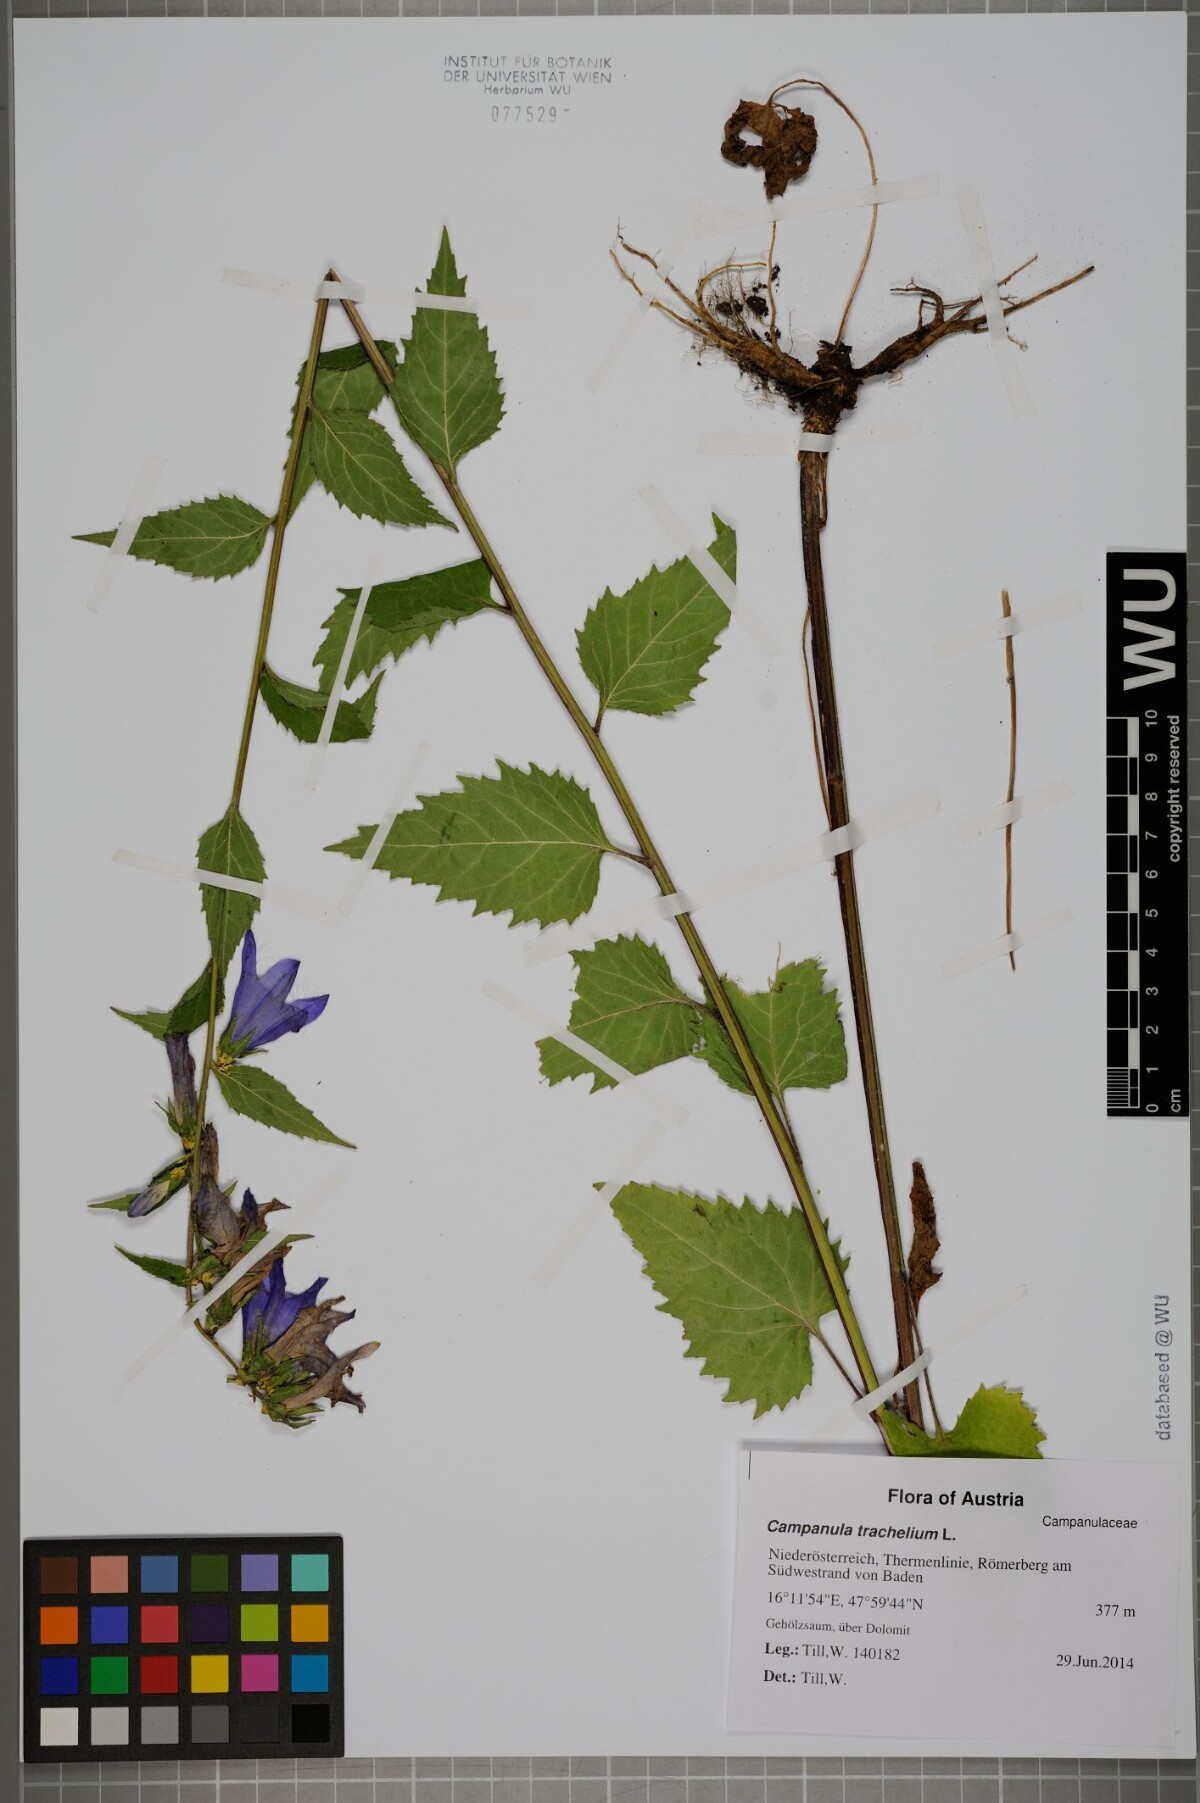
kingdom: Plantae
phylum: Tracheophyta
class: Magnoliopsida
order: Asterales
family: Campanulaceae
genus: Campanula
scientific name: Campanula trachelium
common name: Nettle-leaved bellflower
